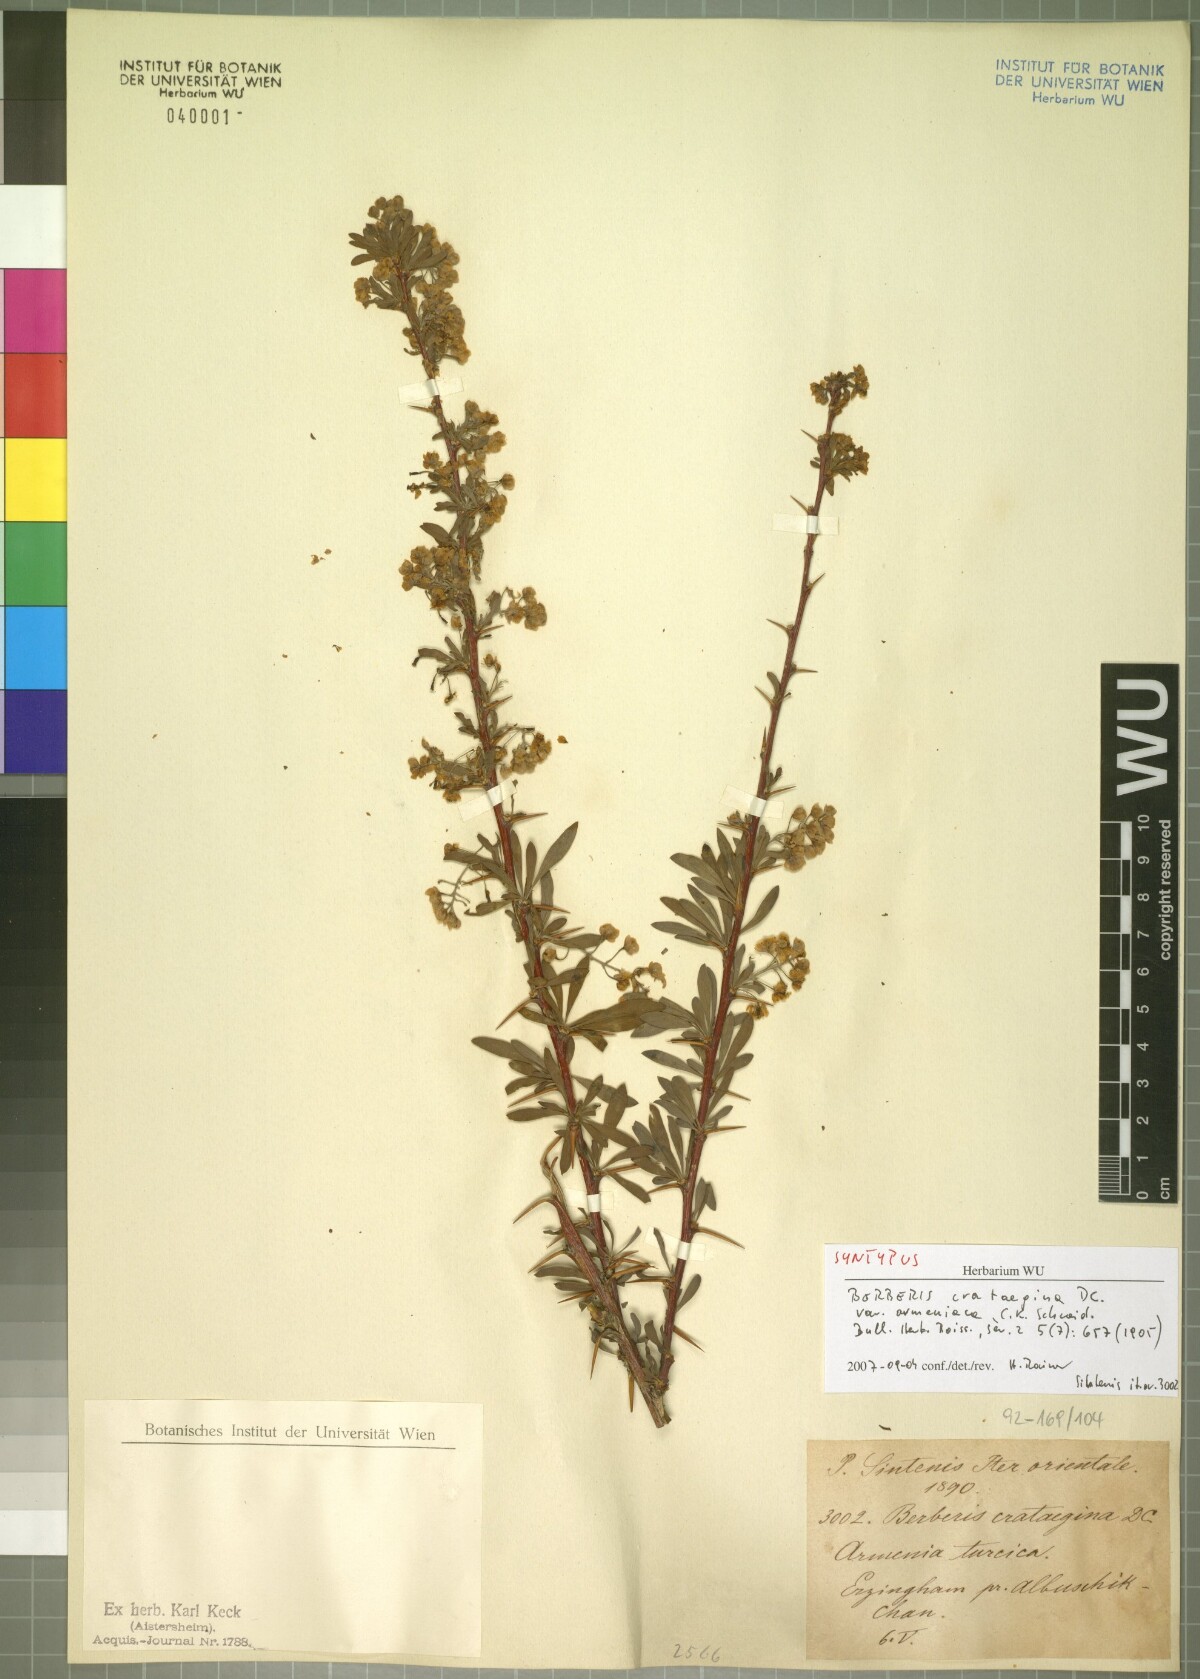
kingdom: Plantae
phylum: Tracheophyta
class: Magnoliopsida
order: Ranunculales
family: Berberidaceae
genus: Berberis
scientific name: Berberis crataegina
